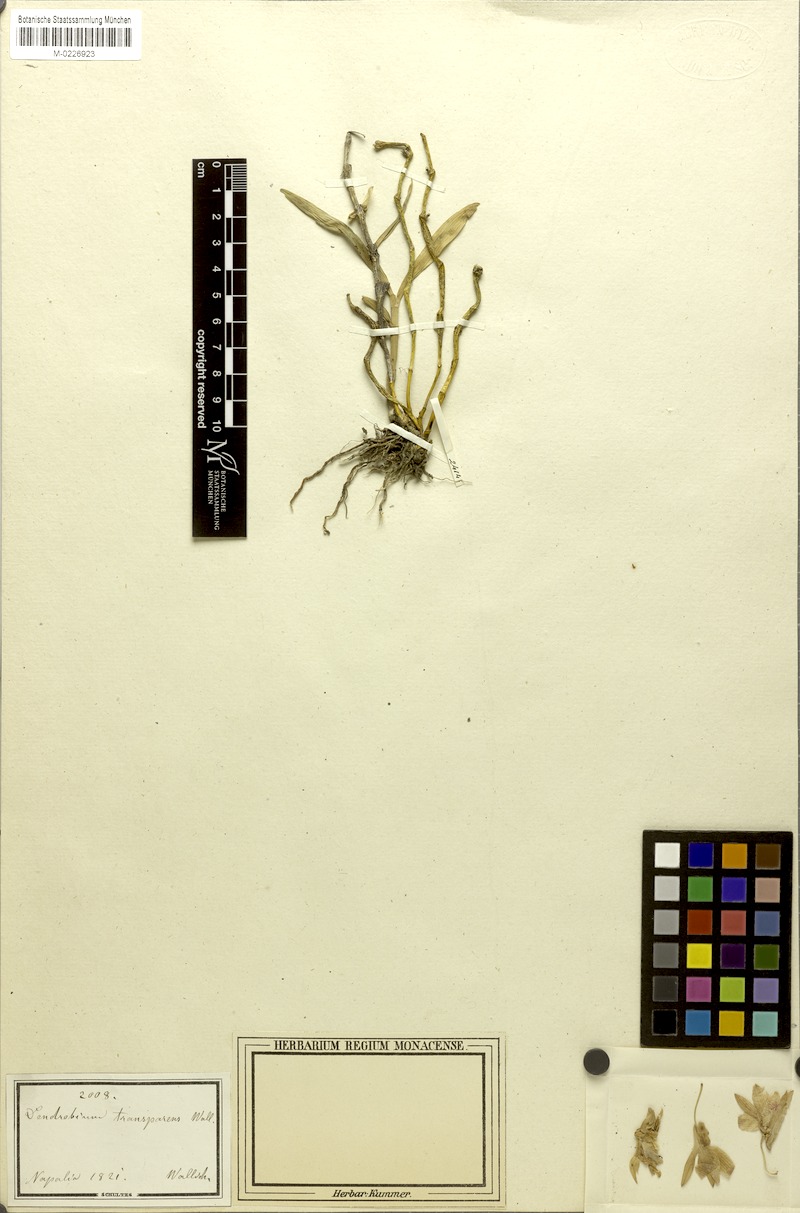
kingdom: Plantae
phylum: Tracheophyta
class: Liliopsida
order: Asparagales
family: Orchidaceae
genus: Dendrobium
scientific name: Dendrobium transparens
